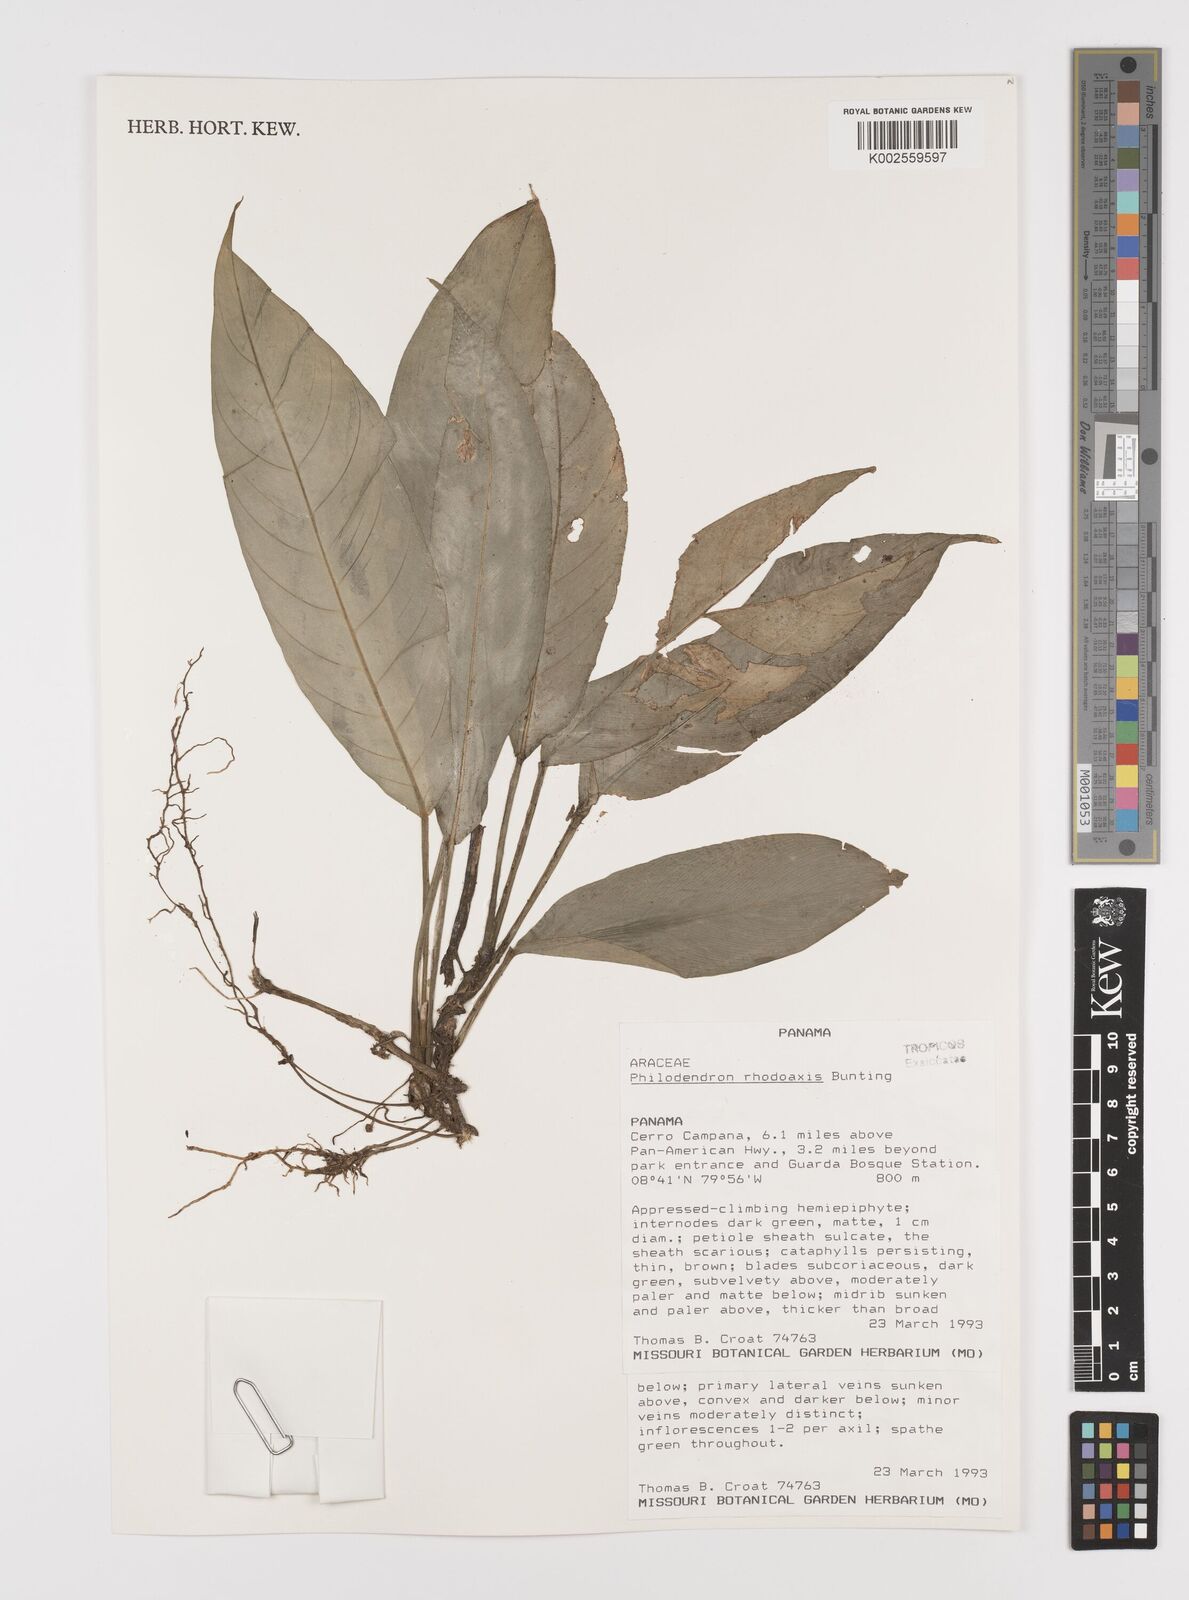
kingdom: Plantae
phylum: Tracheophyta
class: Liliopsida
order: Alismatales
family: Araceae
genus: Philodendron
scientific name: Philodendron rhodoaxis
